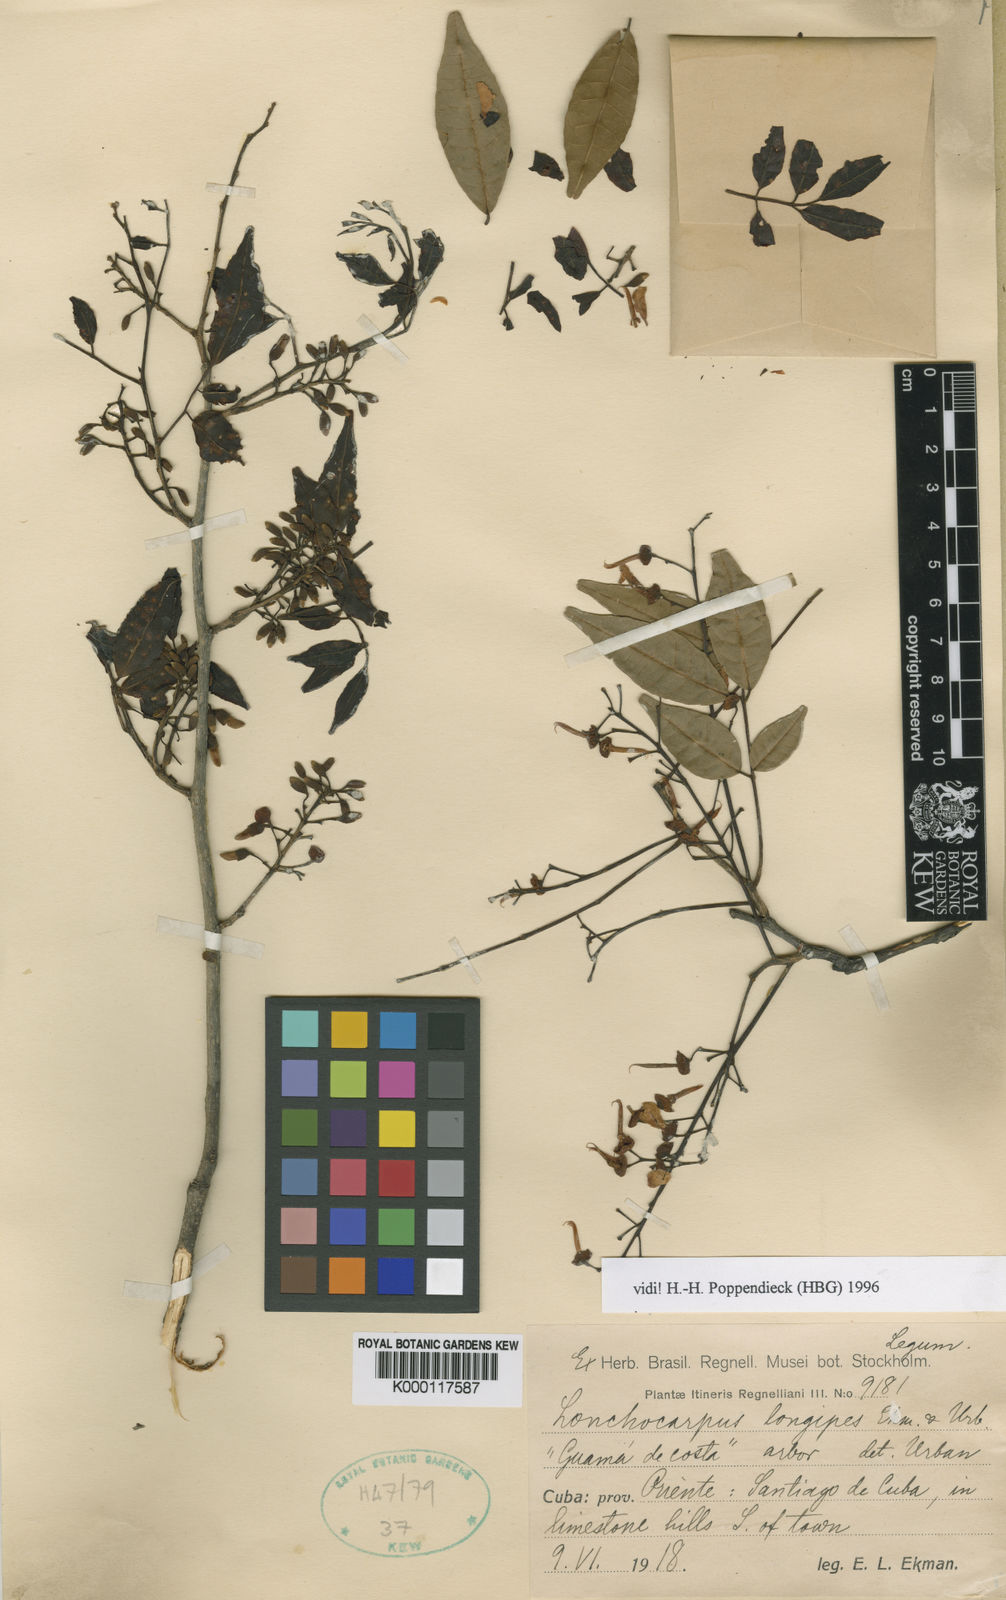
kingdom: Plantae
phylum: Tracheophyta
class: Magnoliopsida
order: Fabales
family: Fabaceae
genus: Lonchocarpus
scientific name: Lonchocarpus longipes
